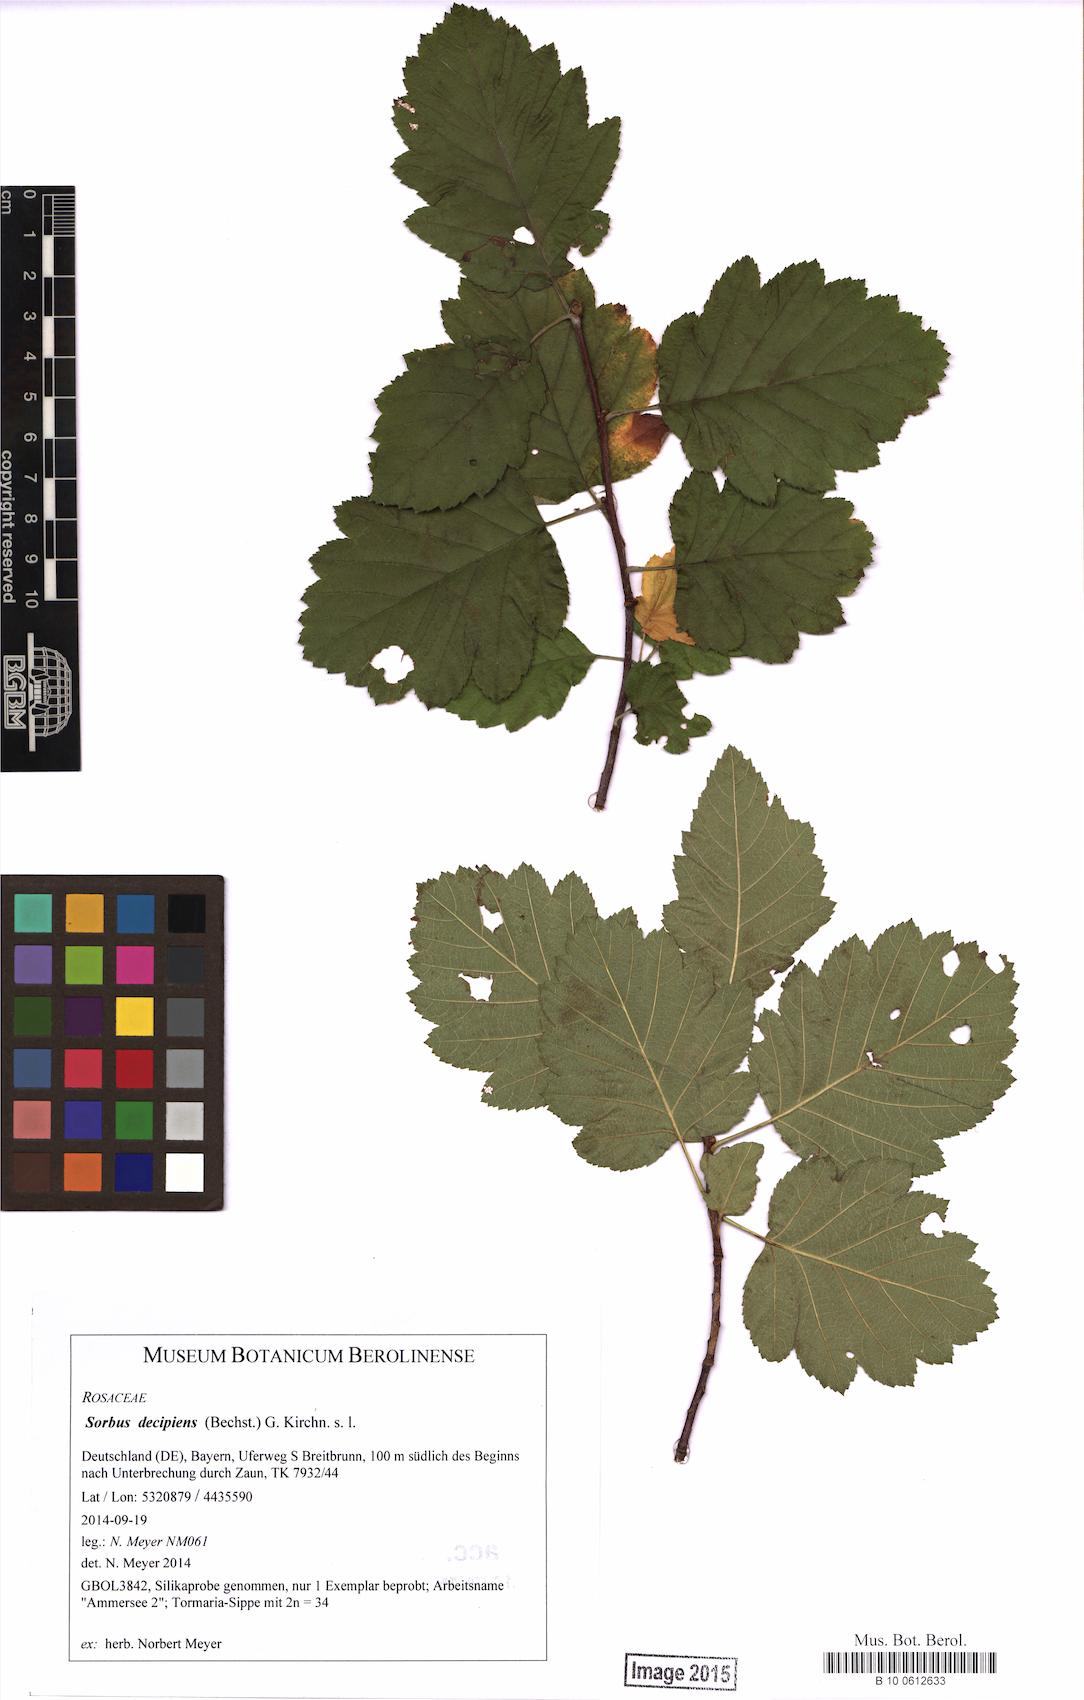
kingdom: Plantae
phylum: Tracheophyta
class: Magnoliopsida
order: Rosales
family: Rosaceae
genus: Karpatiosorbus
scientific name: Karpatiosorbus hybrida
